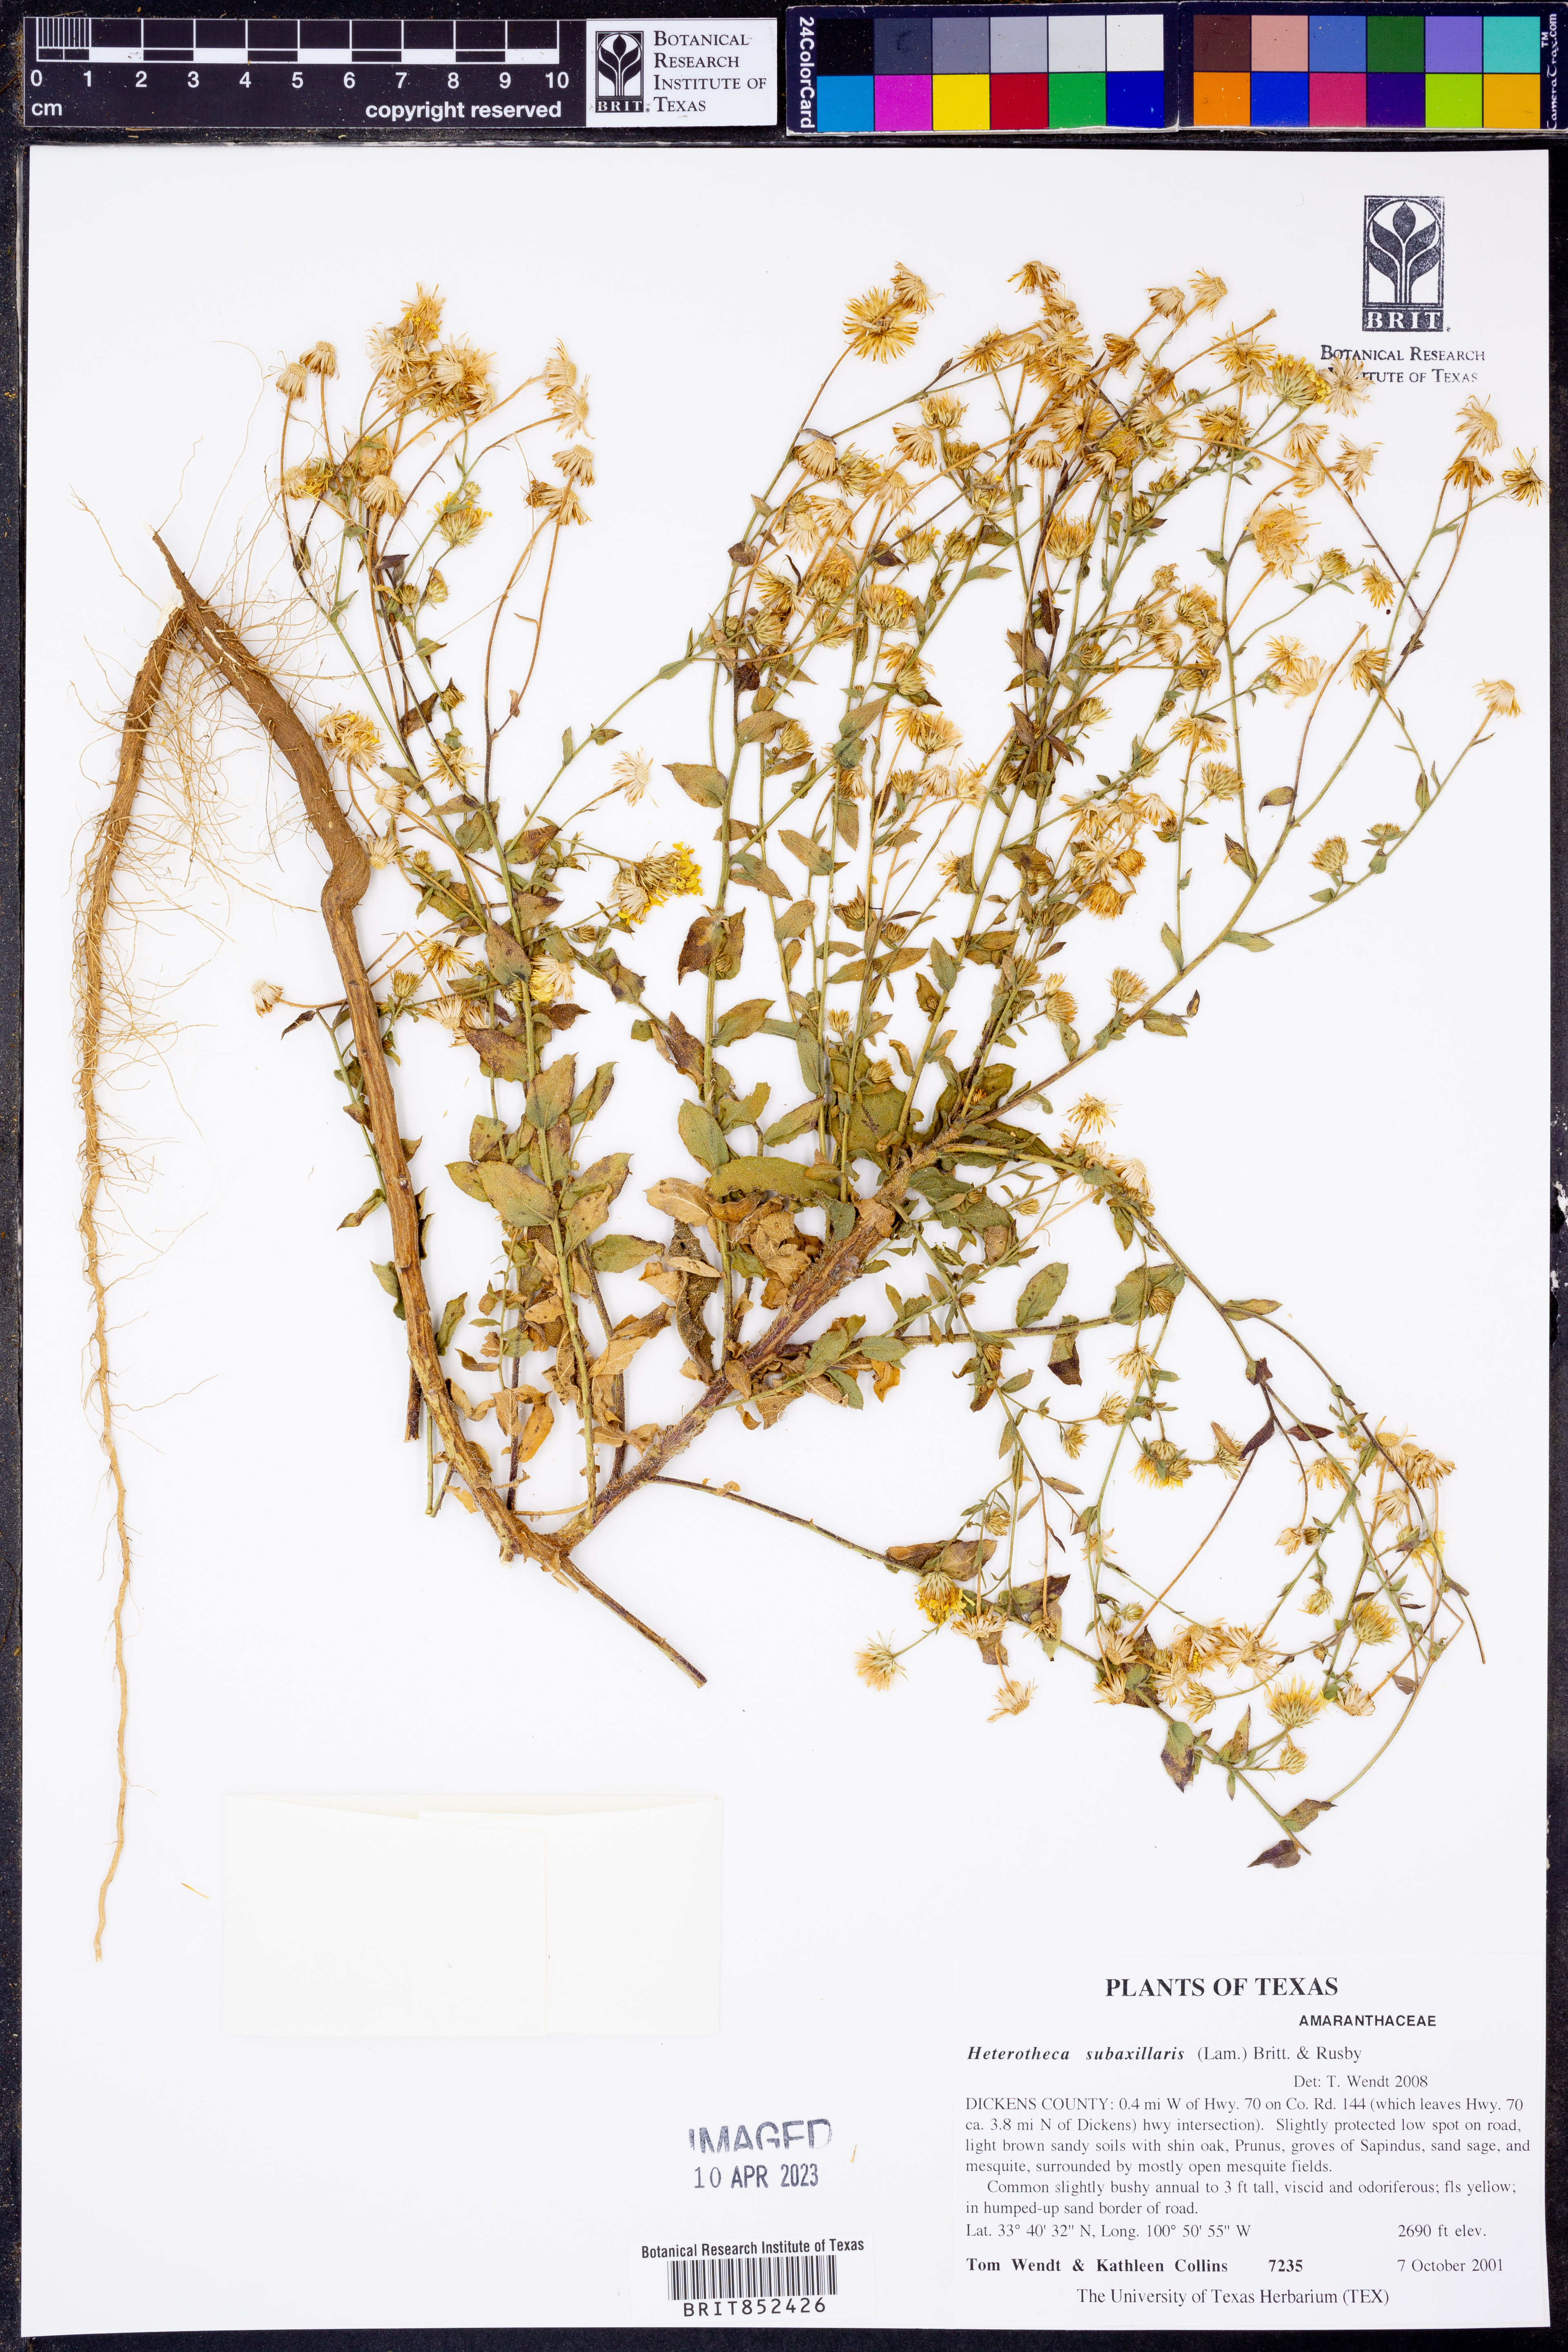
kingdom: Plantae
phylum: Tracheophyta
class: Magnoliopsida
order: Asterales
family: Asteraceae
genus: Heterotheca
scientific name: Heterotheca subaxillaris
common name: Camphorweed
